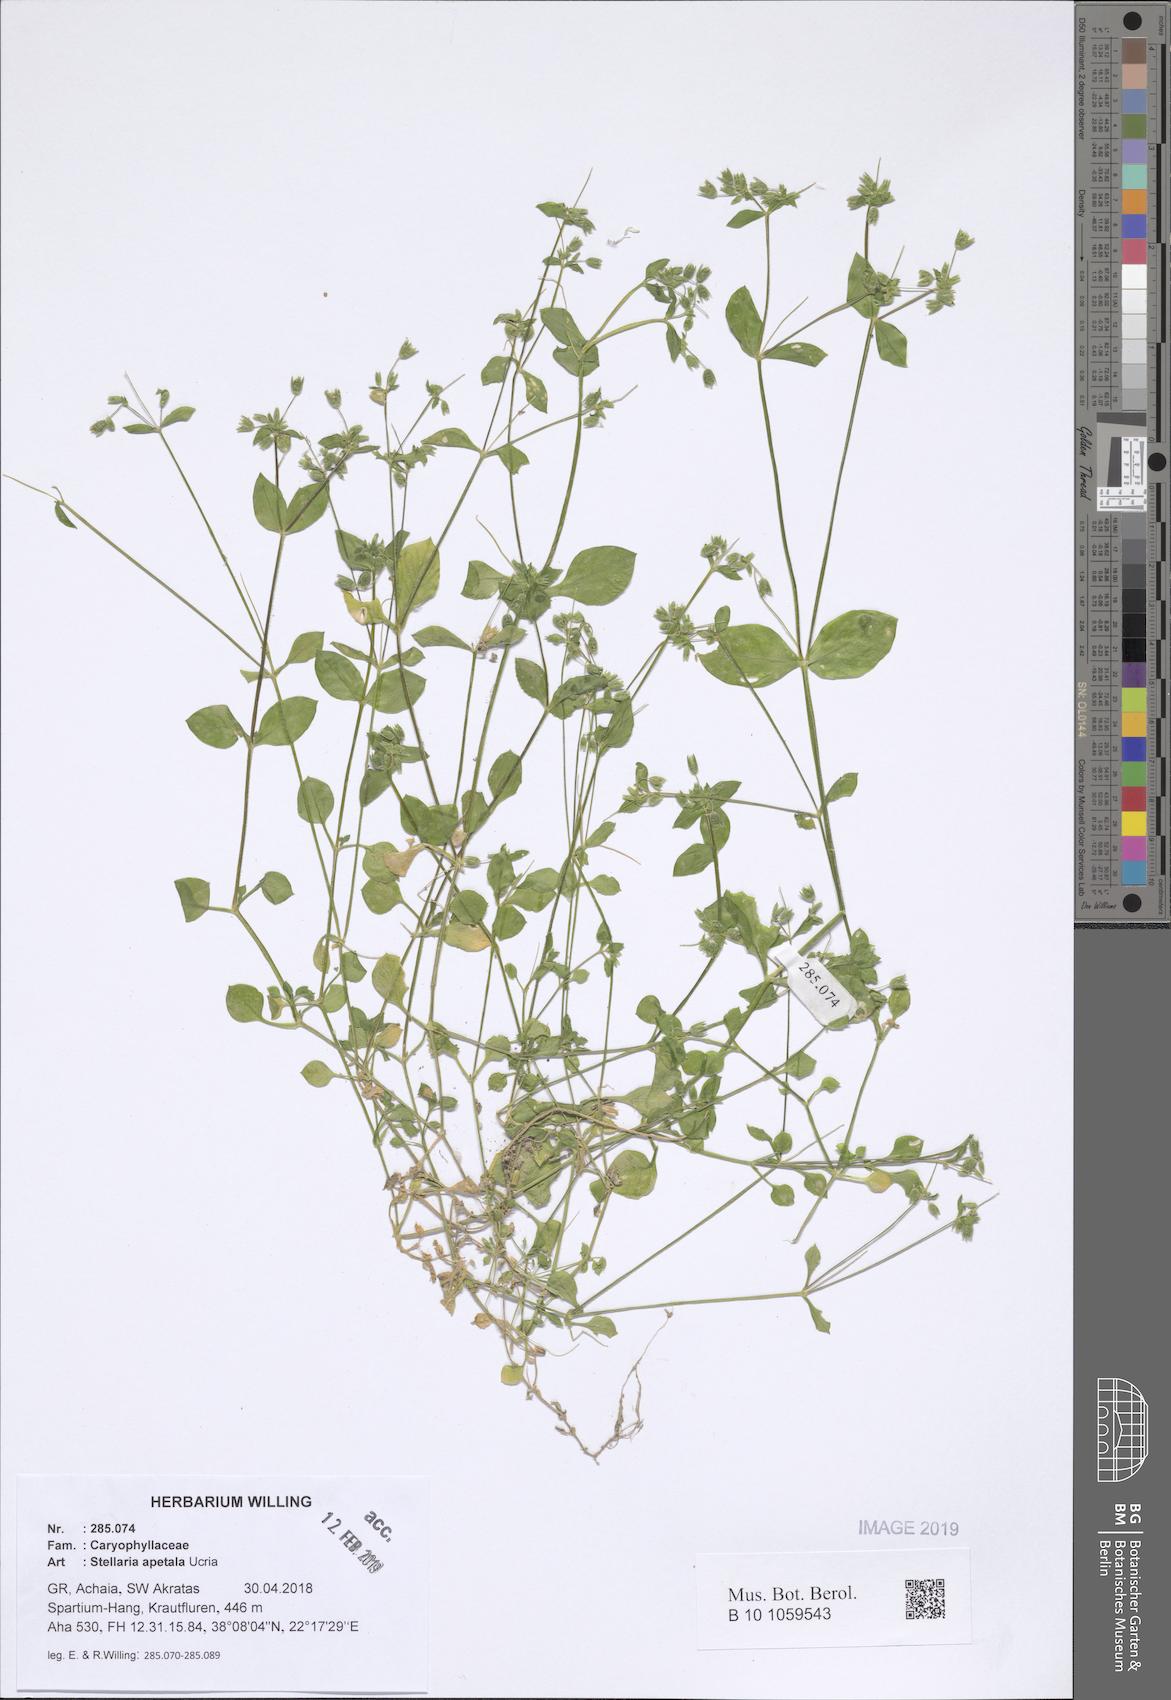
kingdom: Plantae
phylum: Tracheophyta
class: Magnoliopsida
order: Caryophyllales
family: Caryophyllaceae
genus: Stellaria
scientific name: Stellaria apetala
